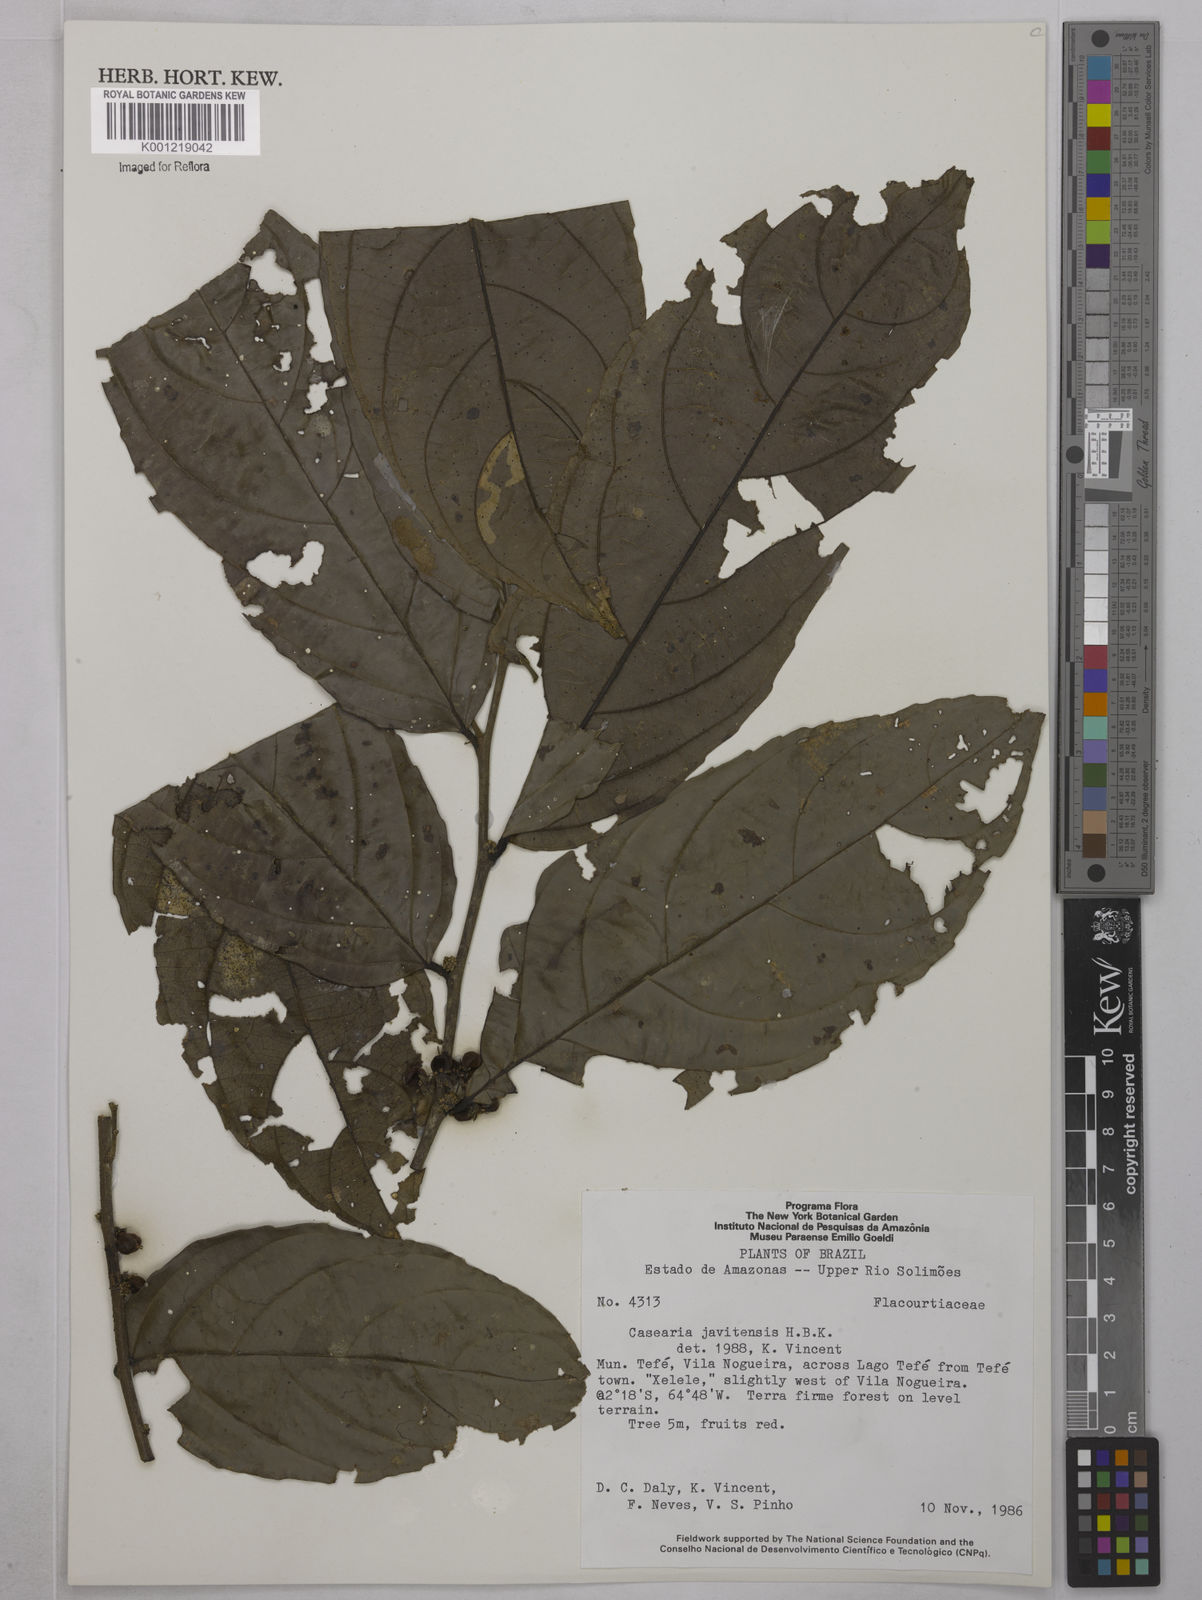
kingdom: Plantae
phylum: Tracheophyta
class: Magnoliopsida
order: Malpighiales
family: Salicaceae
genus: Piparea
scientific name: Piparea multiflora
